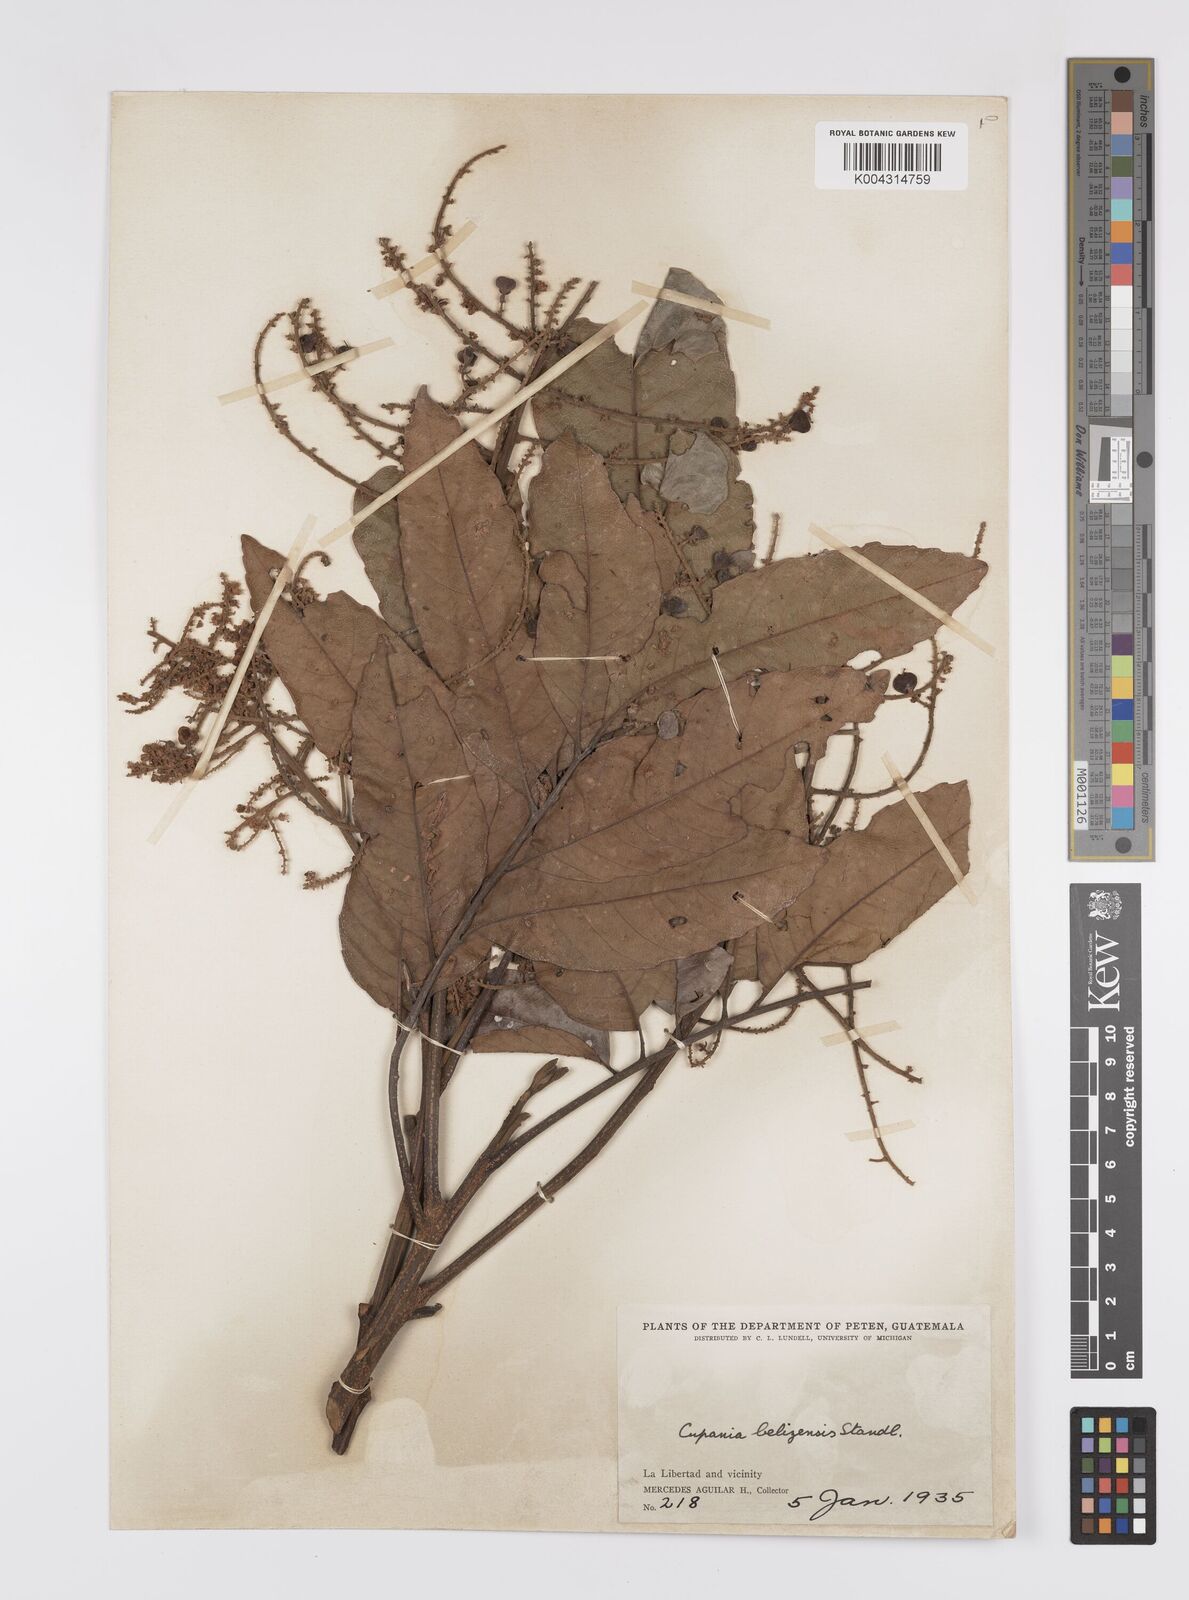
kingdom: Plantae
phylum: Tracheophyta
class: Magnoliopsida
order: Sapindales
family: Sapindaceae
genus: Cupania
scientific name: Cupania belizensis
